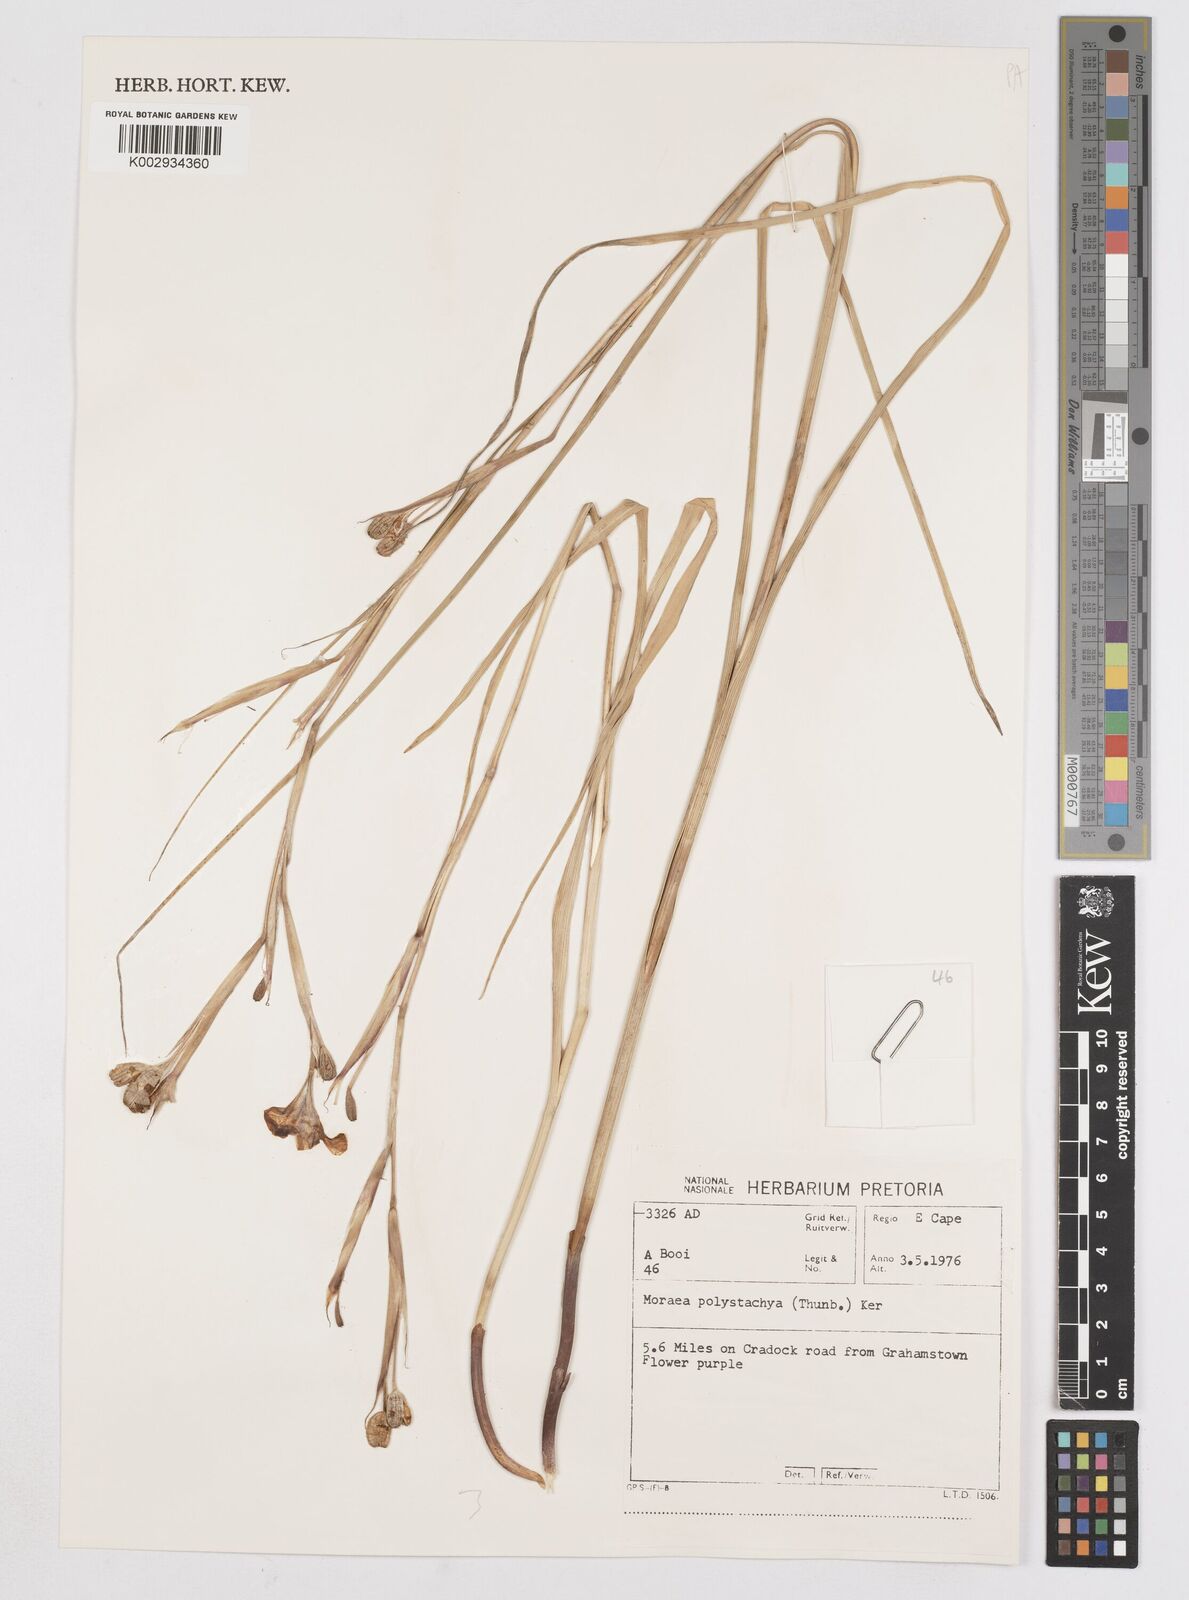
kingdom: Plantae
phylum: Tracheophyta
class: Liliopsida
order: Asparagales
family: Iridaceae
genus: Moraea
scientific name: Moraea polystachya
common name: Blue-tulip
